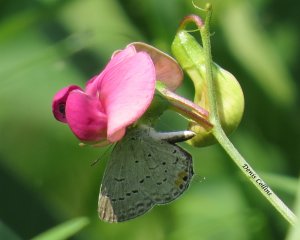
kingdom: Animalia
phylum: Arthropoda
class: Insecta
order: Lepidoptera
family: Lycaenidae
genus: Elkalyce
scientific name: Elkalyce comyntas
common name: Eastern Tailed-Blue
